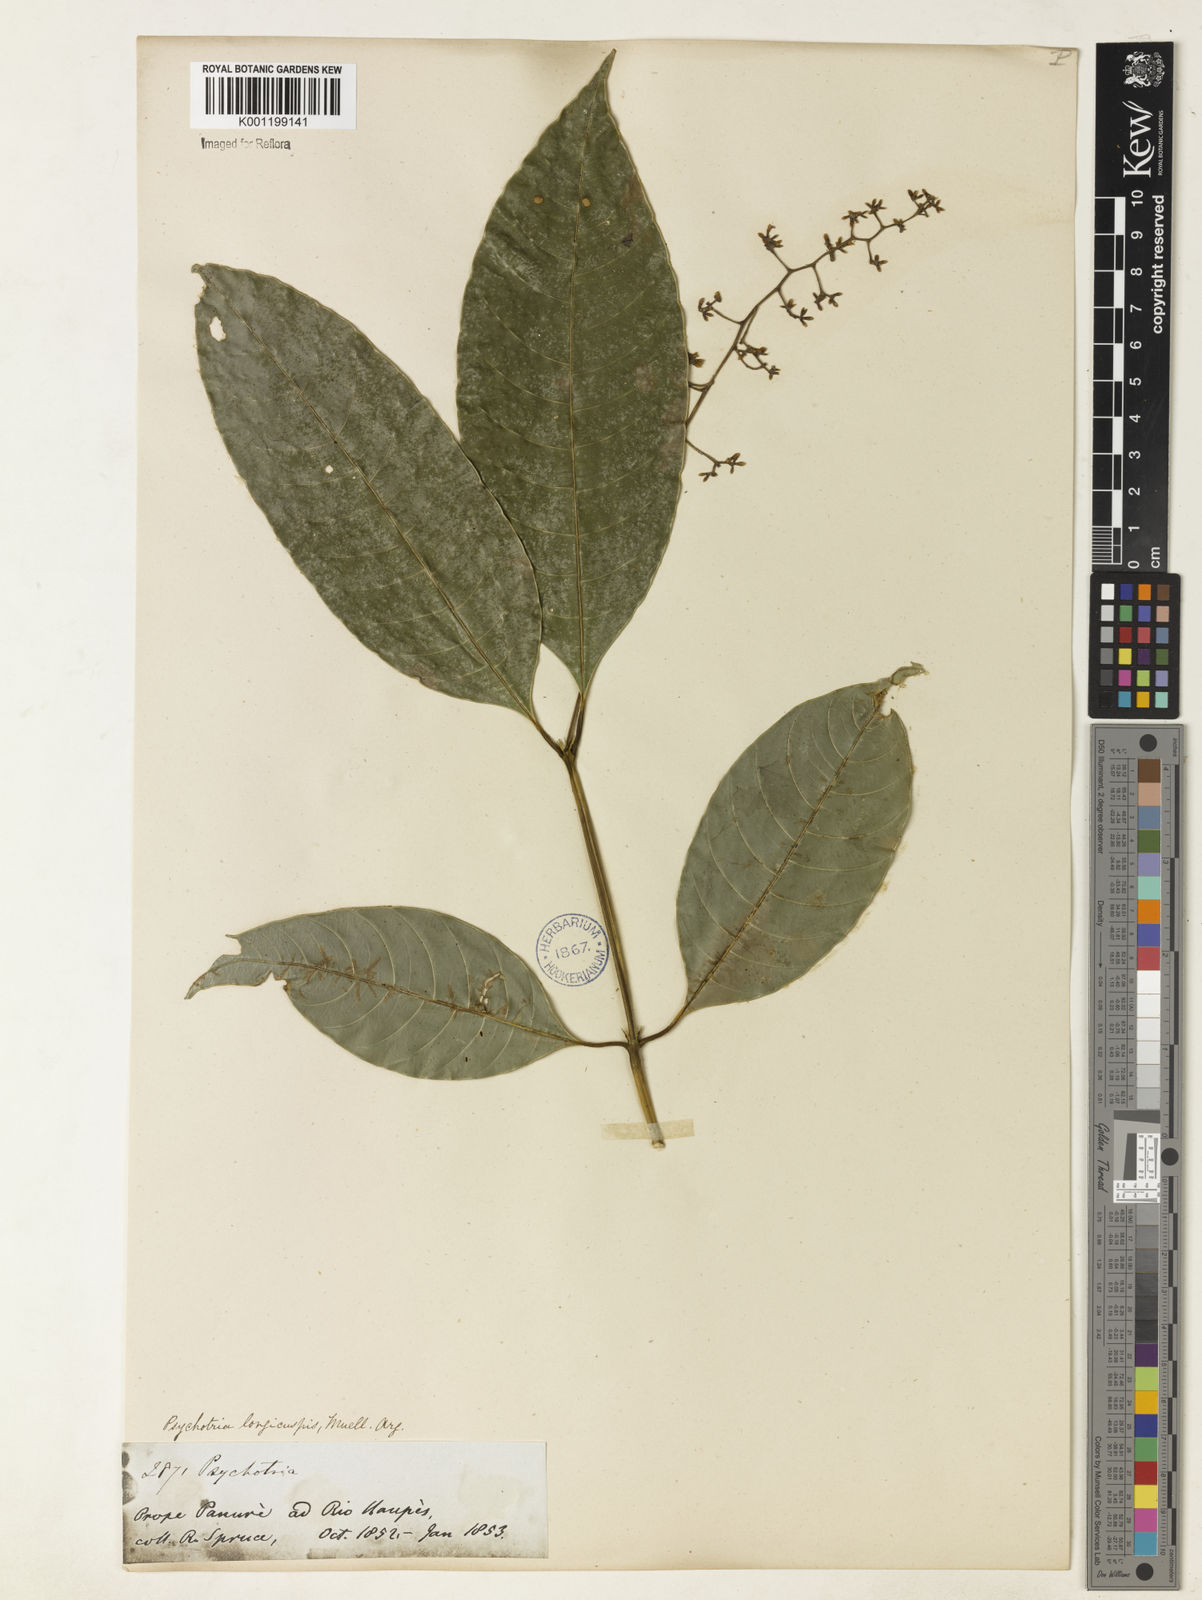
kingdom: Plantae
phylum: Tracheophyta
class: Magnoliopsida
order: Gentianales
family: Rubiaceae
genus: Psychotria
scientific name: Psychotria
